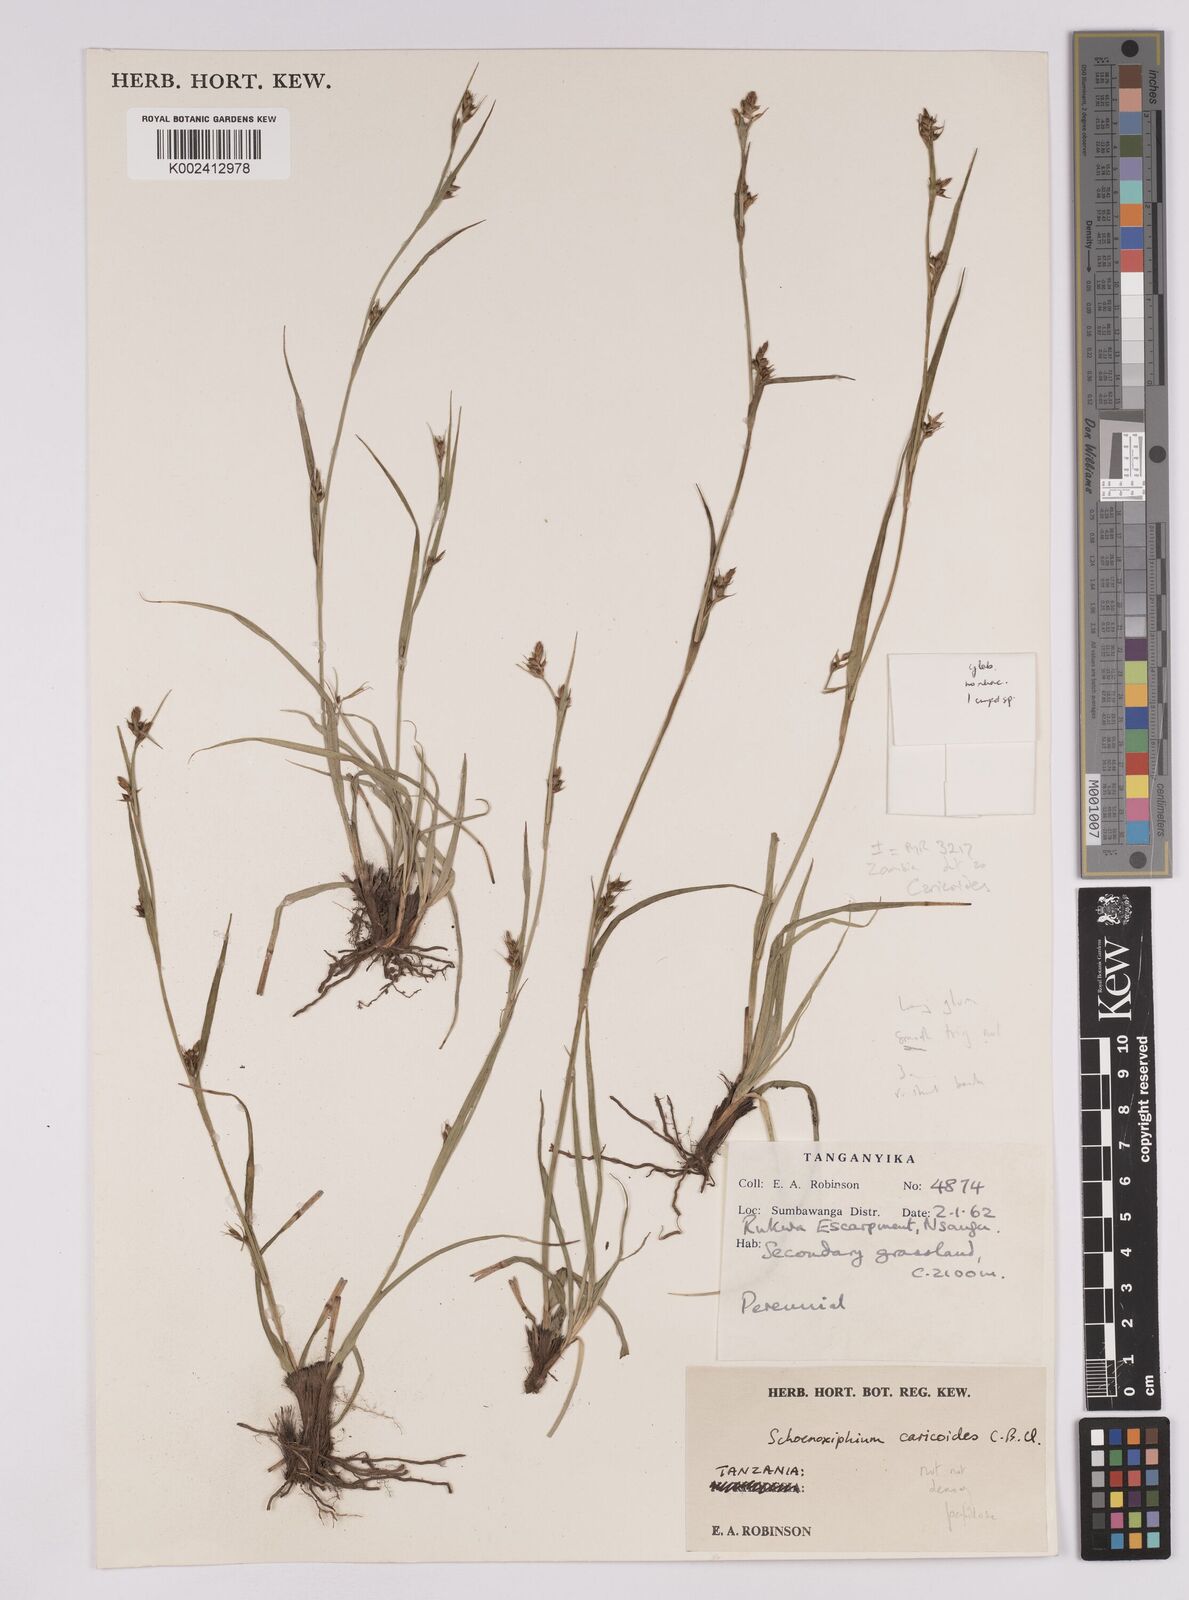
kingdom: Plantae
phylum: Tracheophyta
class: Liliopsida
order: Poales
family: Cyperaceae
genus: Carex
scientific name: Carex spartea
